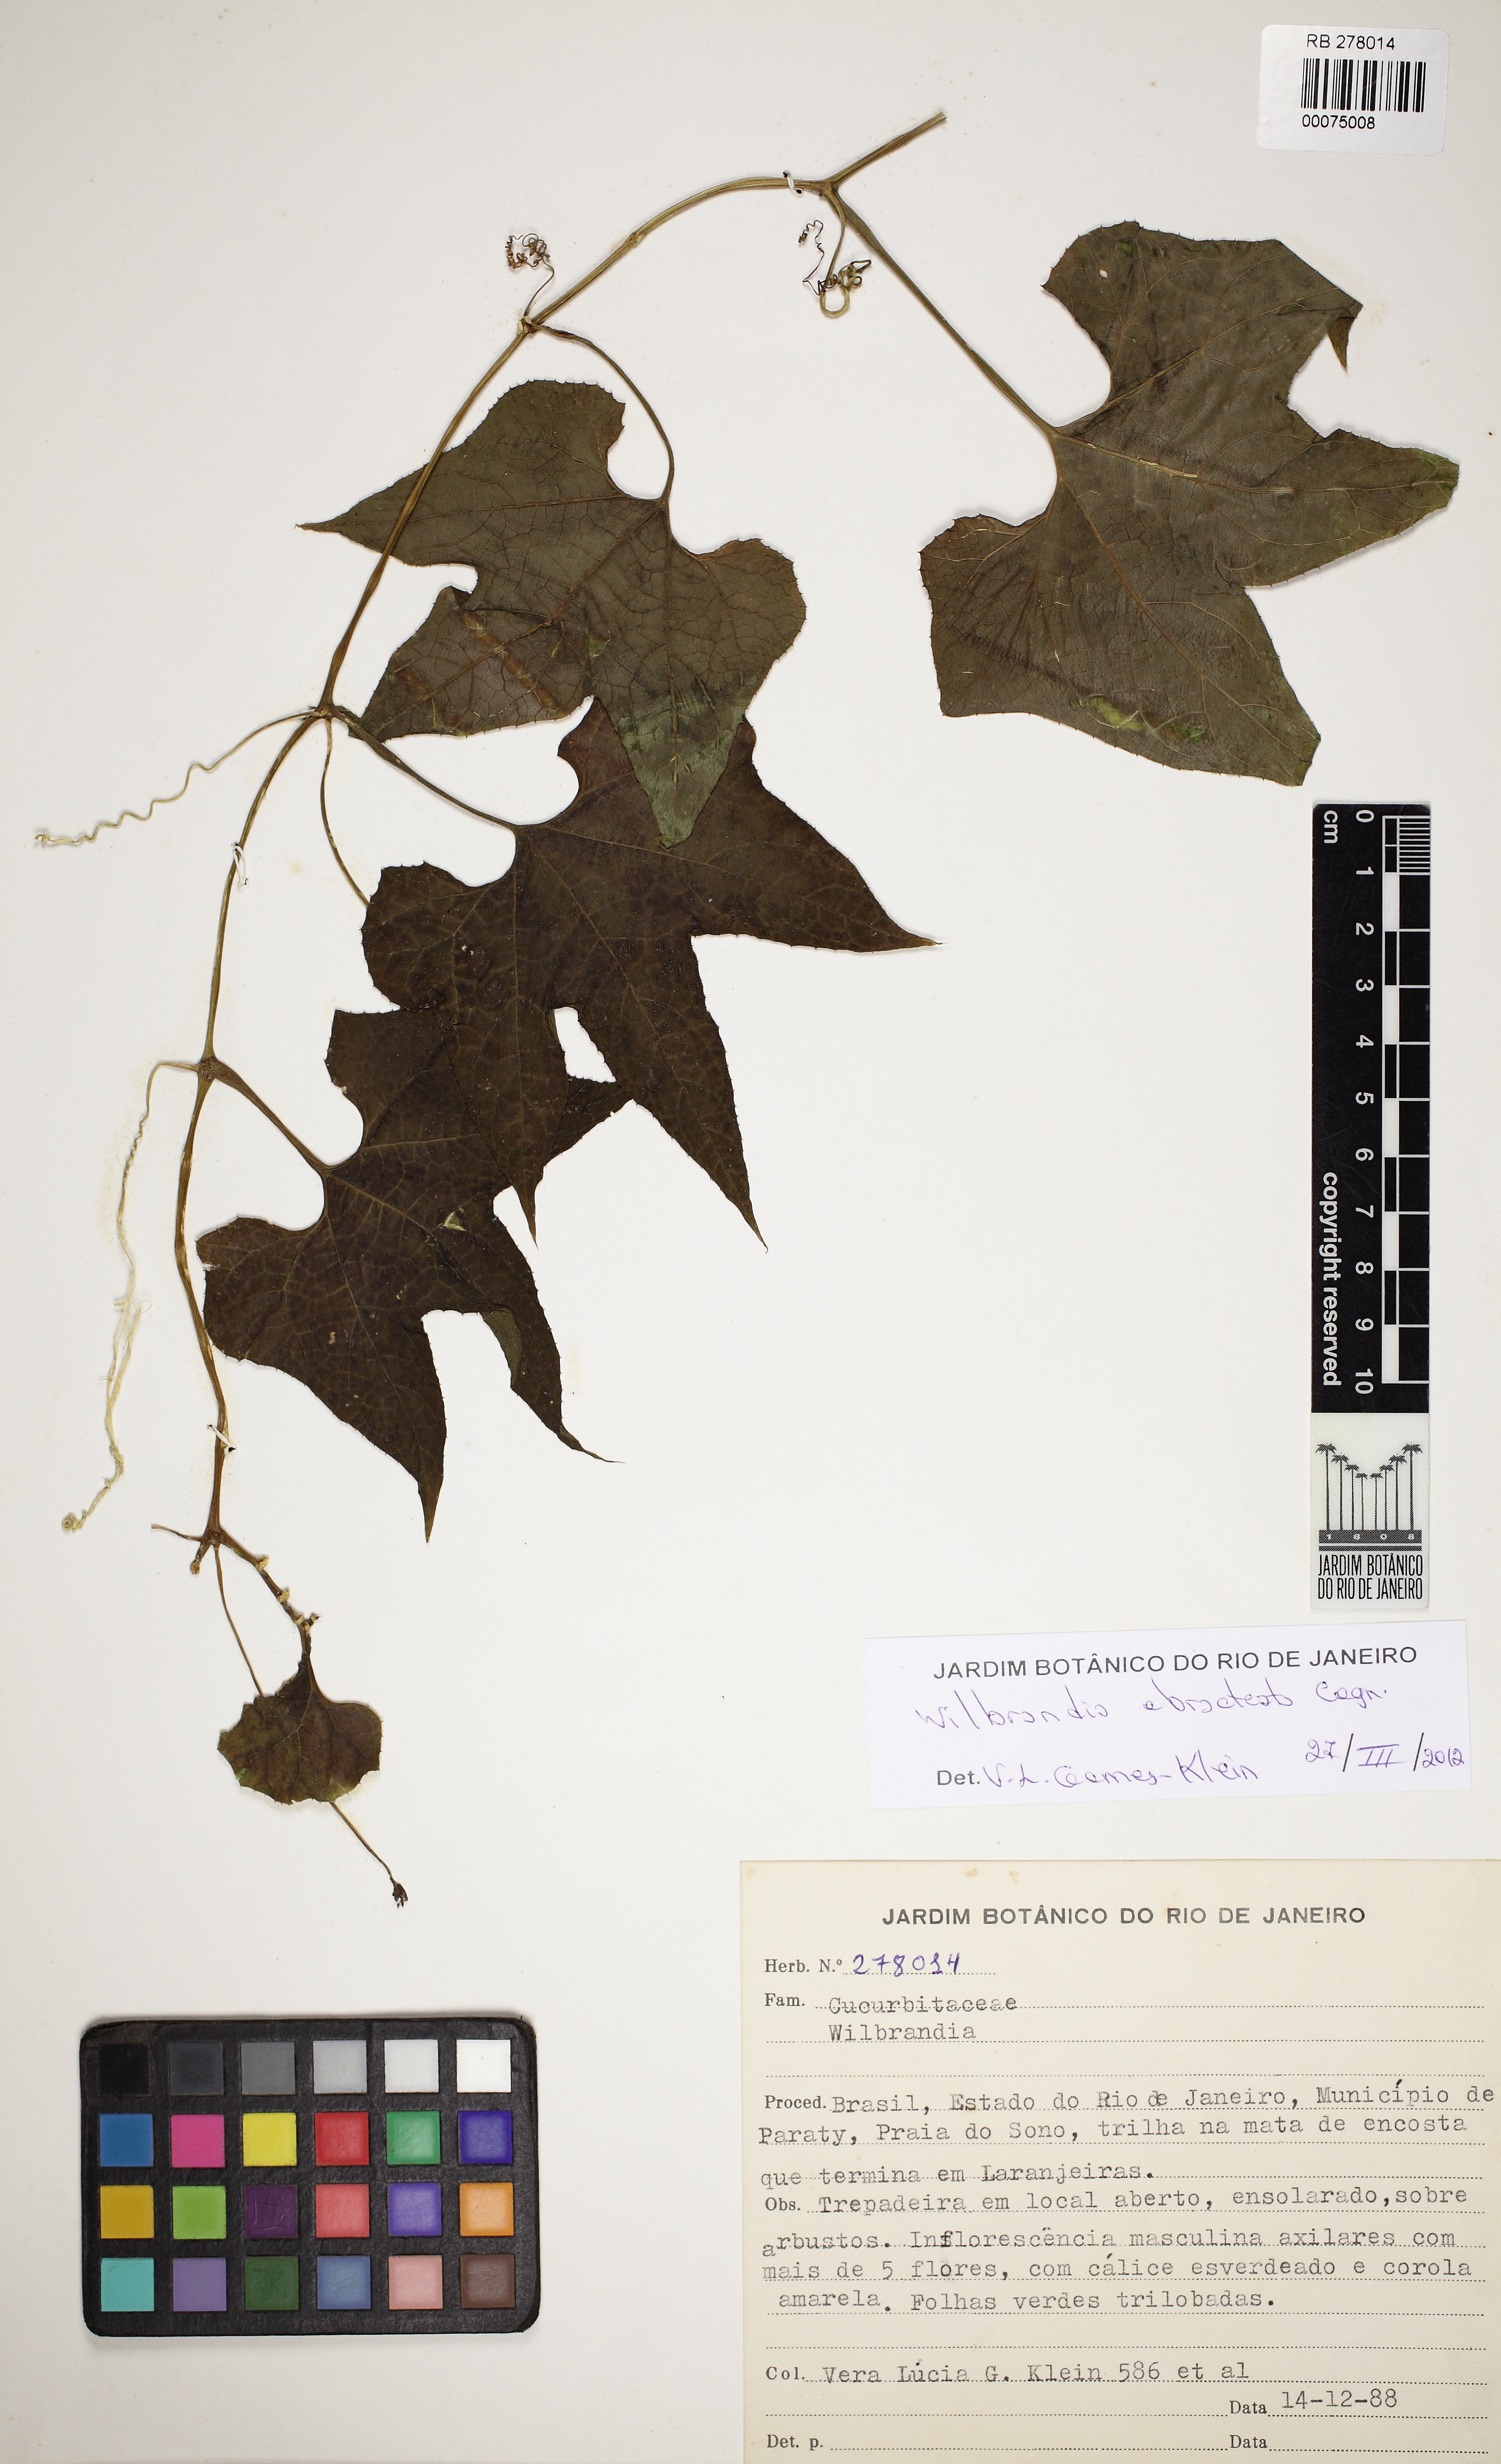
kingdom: Plantae
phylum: Tracheophyta
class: Magnoliopsida
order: Cucurbitales
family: Cucurbitaceae
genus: Wilbrandia
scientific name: Wilbrandia ebracteata
